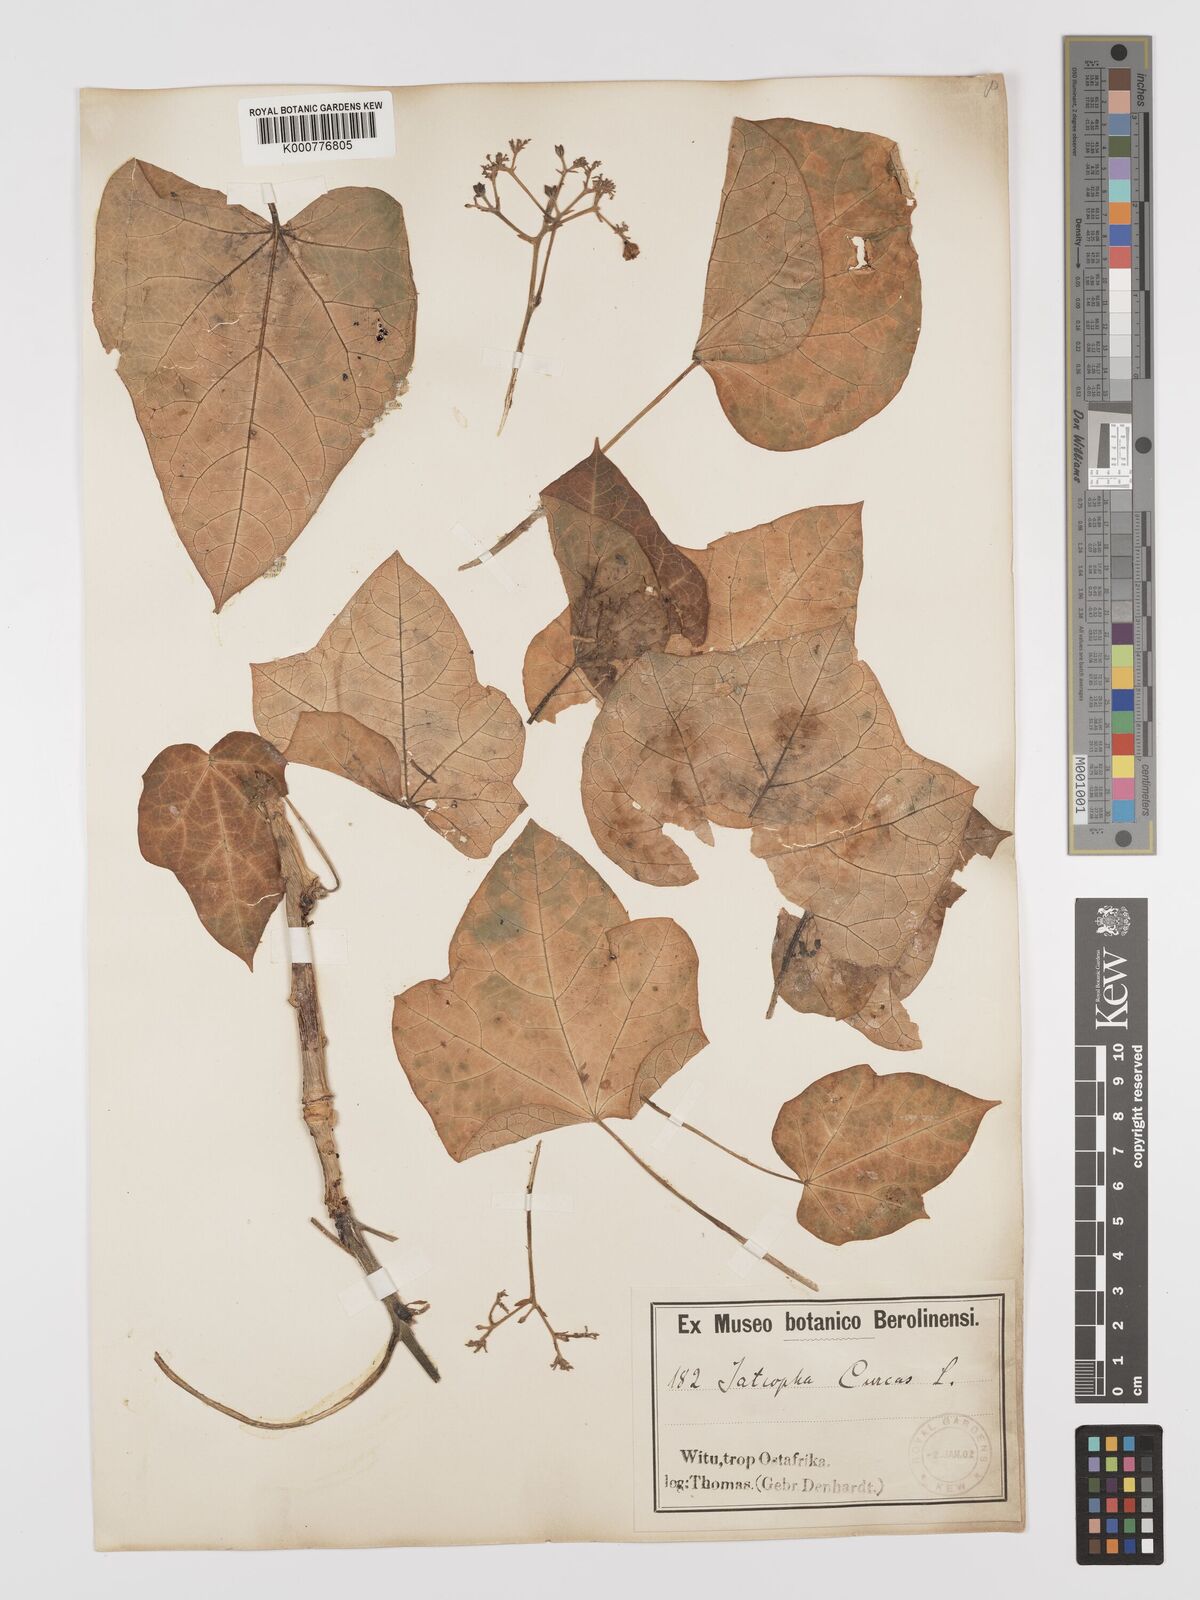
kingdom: Plantae
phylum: Tracheophyta
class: Magnoliopsida
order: Malpighiales
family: Euphorbiaceae
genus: Jatropha
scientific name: Jatropha curcas
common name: Barbados nut
